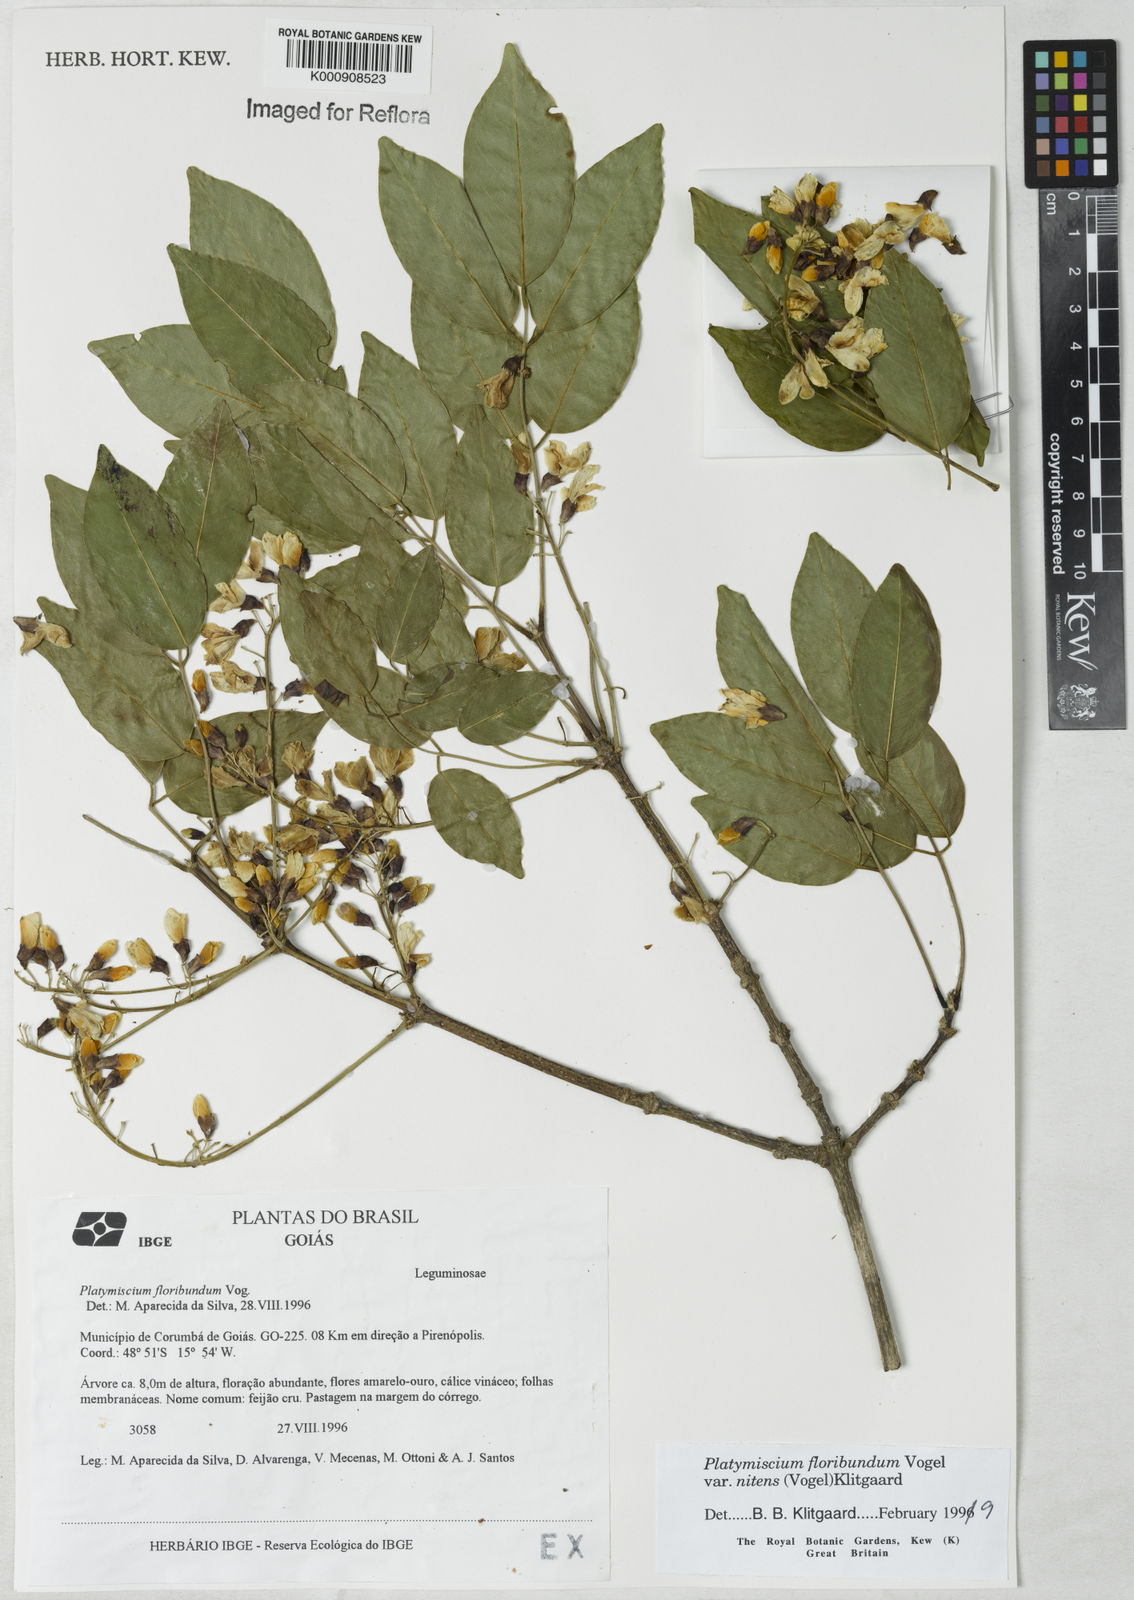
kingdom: Plantae
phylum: Tracheophyta
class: Magnoliopsida
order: Fabales
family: Fabaceae
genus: Platymiscium
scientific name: Platymiscium floribundum
